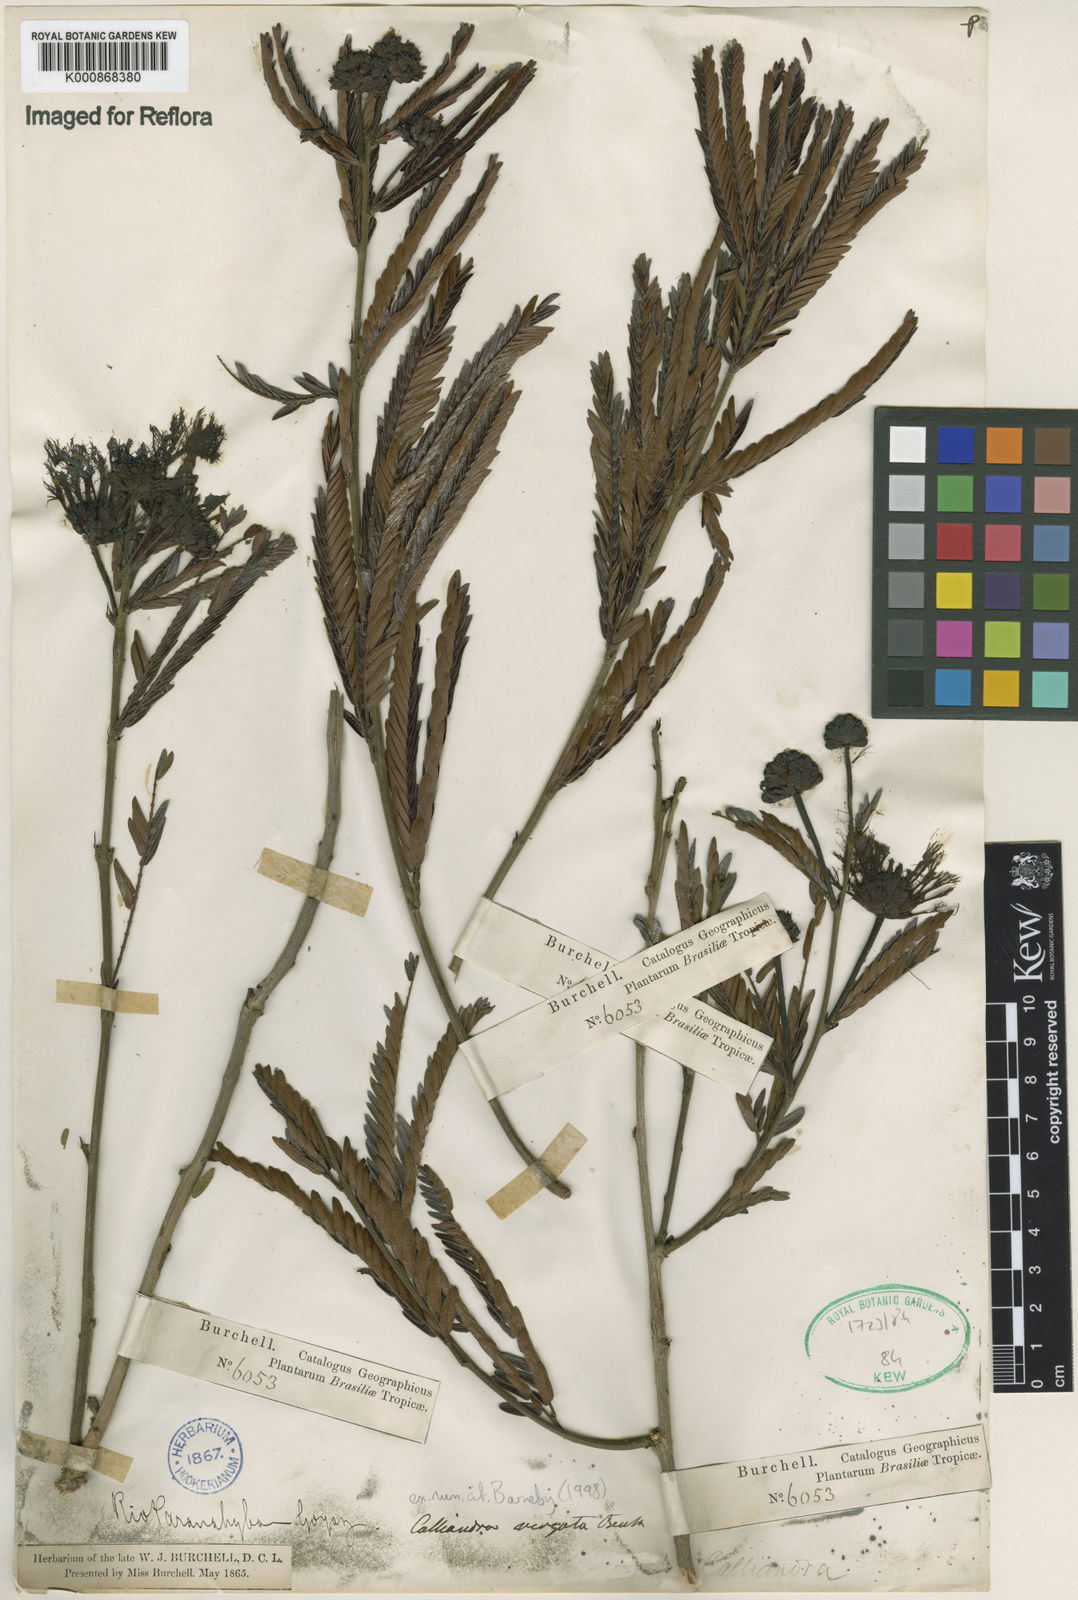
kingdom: Plantae
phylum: Tracheophyta
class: Magnoliopsida
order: Fabales
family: Fabaceae
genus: Calliandra
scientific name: Calliandra virgata
